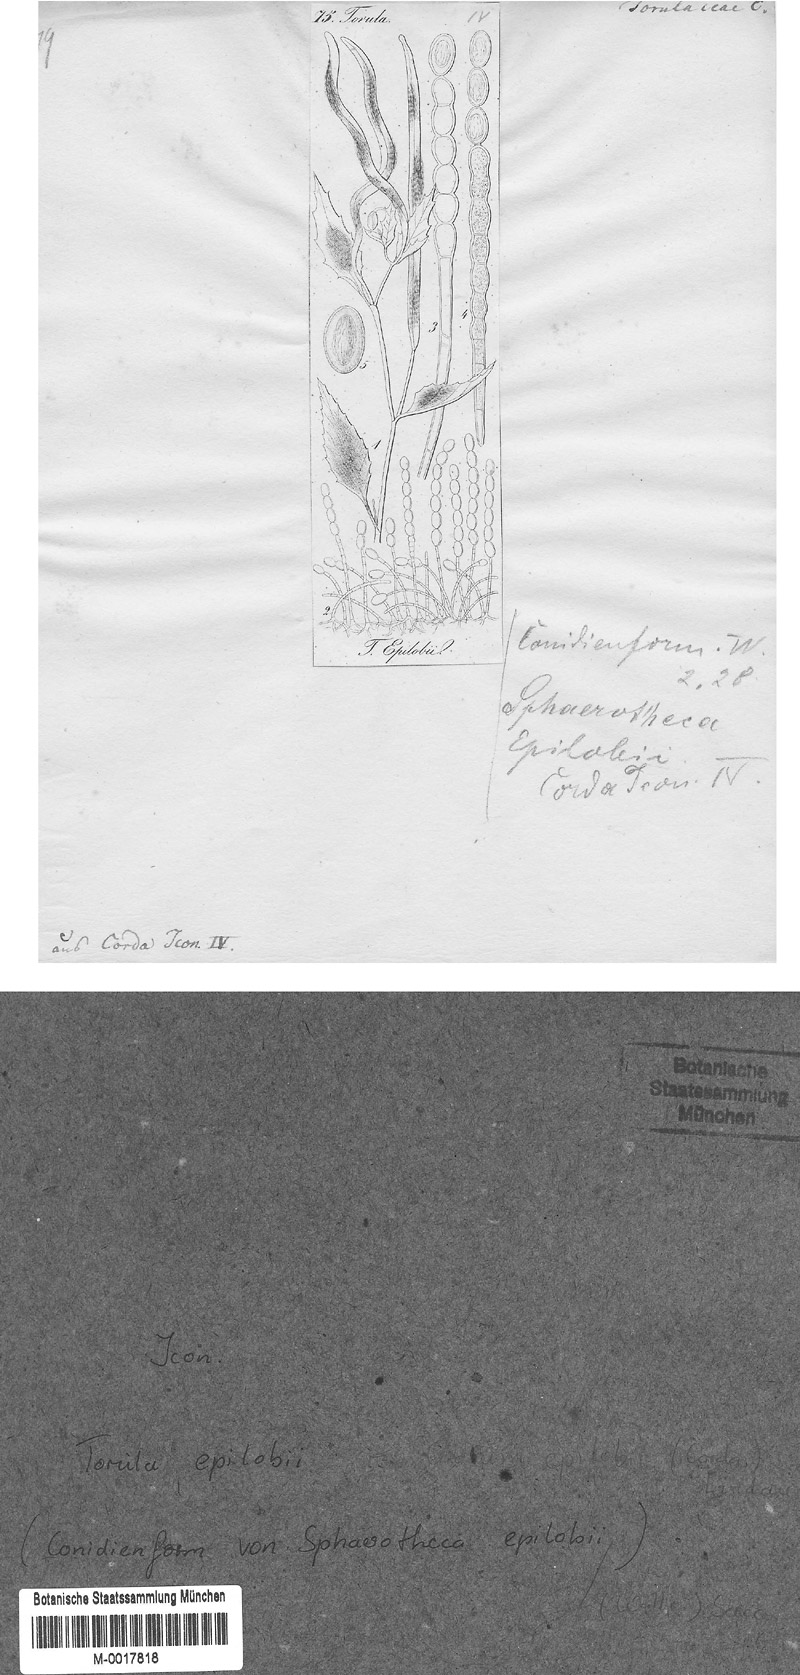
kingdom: Fungi
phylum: Ascomycota
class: Leotiomycetes
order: Helotiales
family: Erysiphaceae
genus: Podosphaera
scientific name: Podosphaera epilobii
